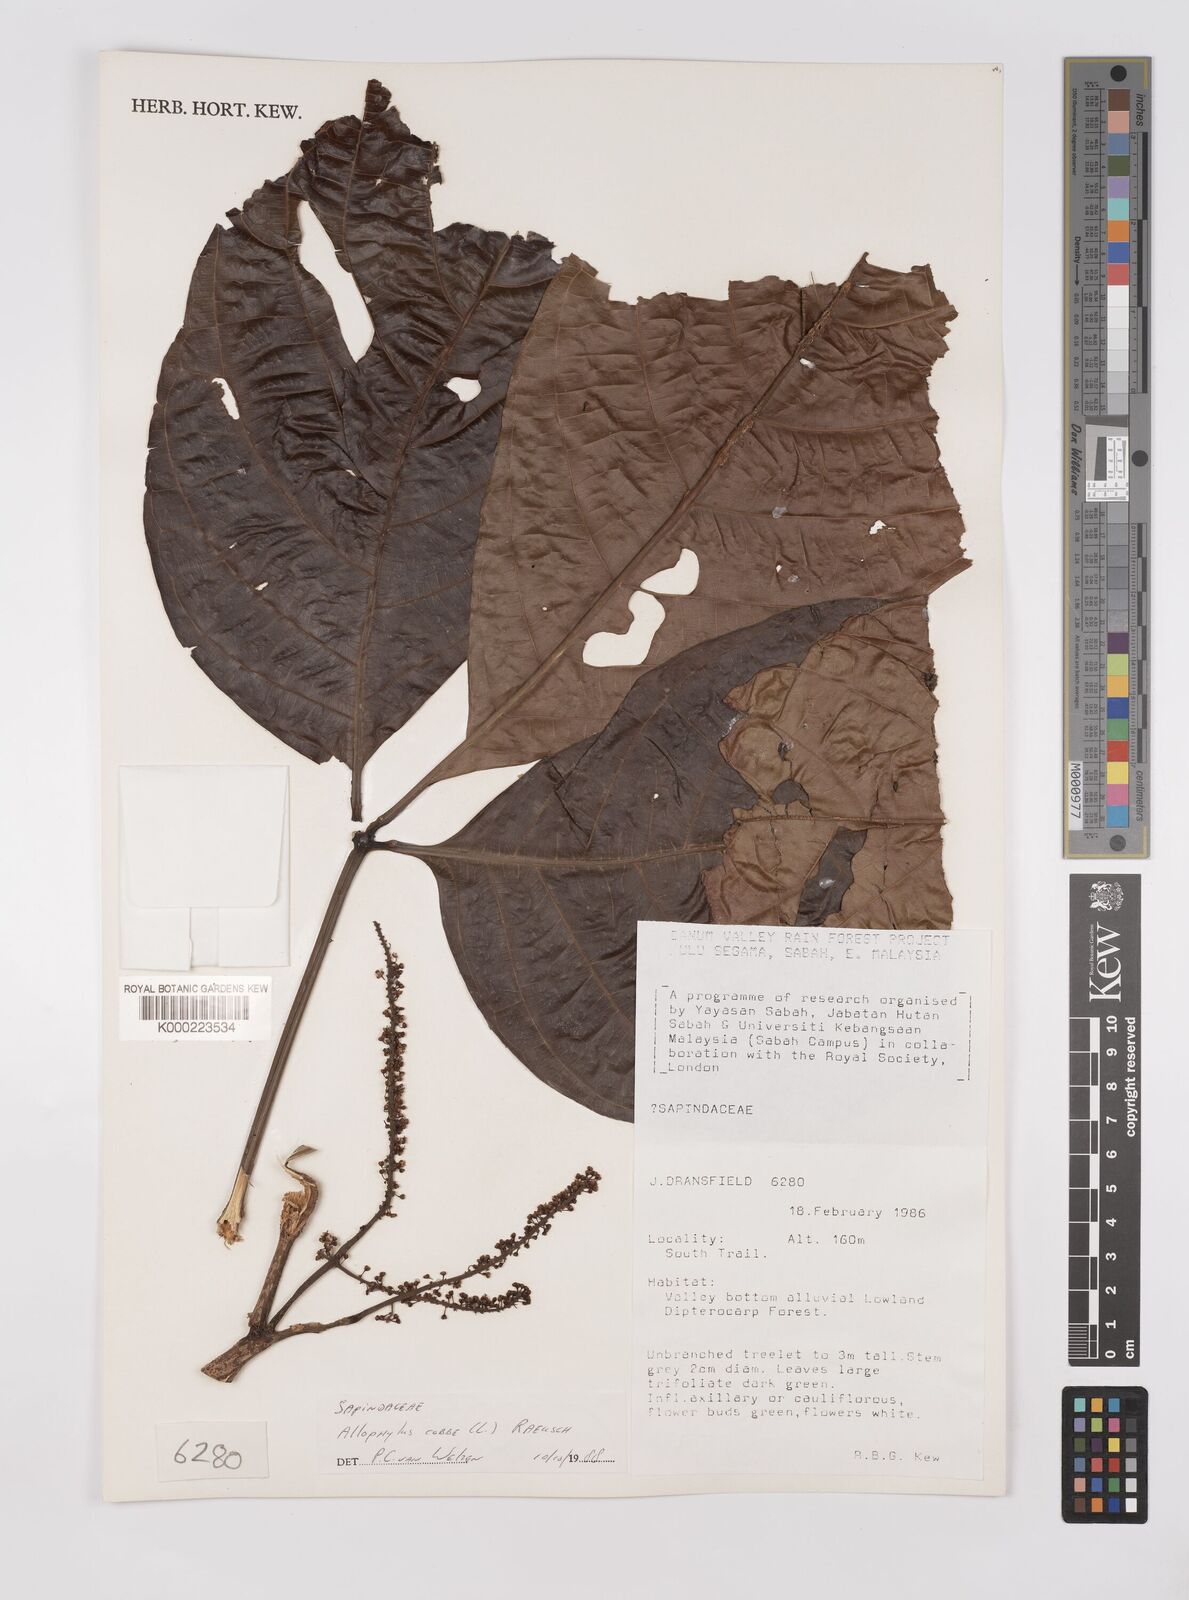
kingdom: Plantae
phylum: Tracheophyta
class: Magnoliopsida
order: Sapindales
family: Sapindaceae
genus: Allophylus
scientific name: Allophylus
